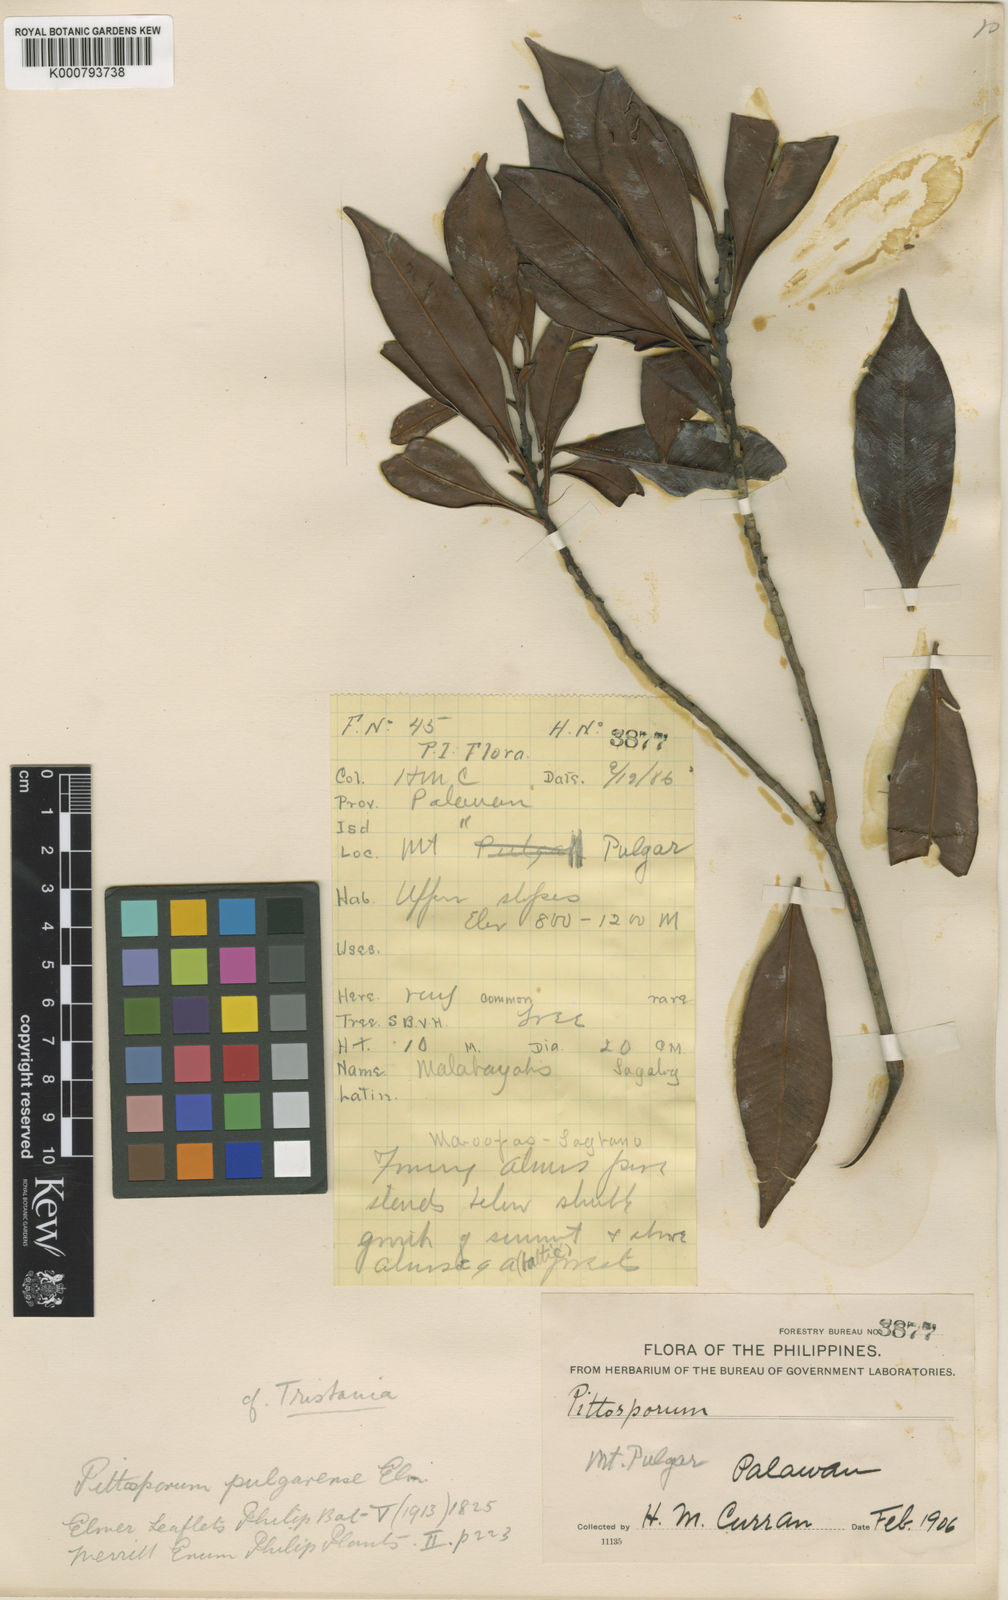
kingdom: Plantae
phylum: Tracheophyta
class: Magnoliopsida
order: Myrtales
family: Myrtaceae
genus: Tristaniopsis
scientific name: Tristaniopsis
